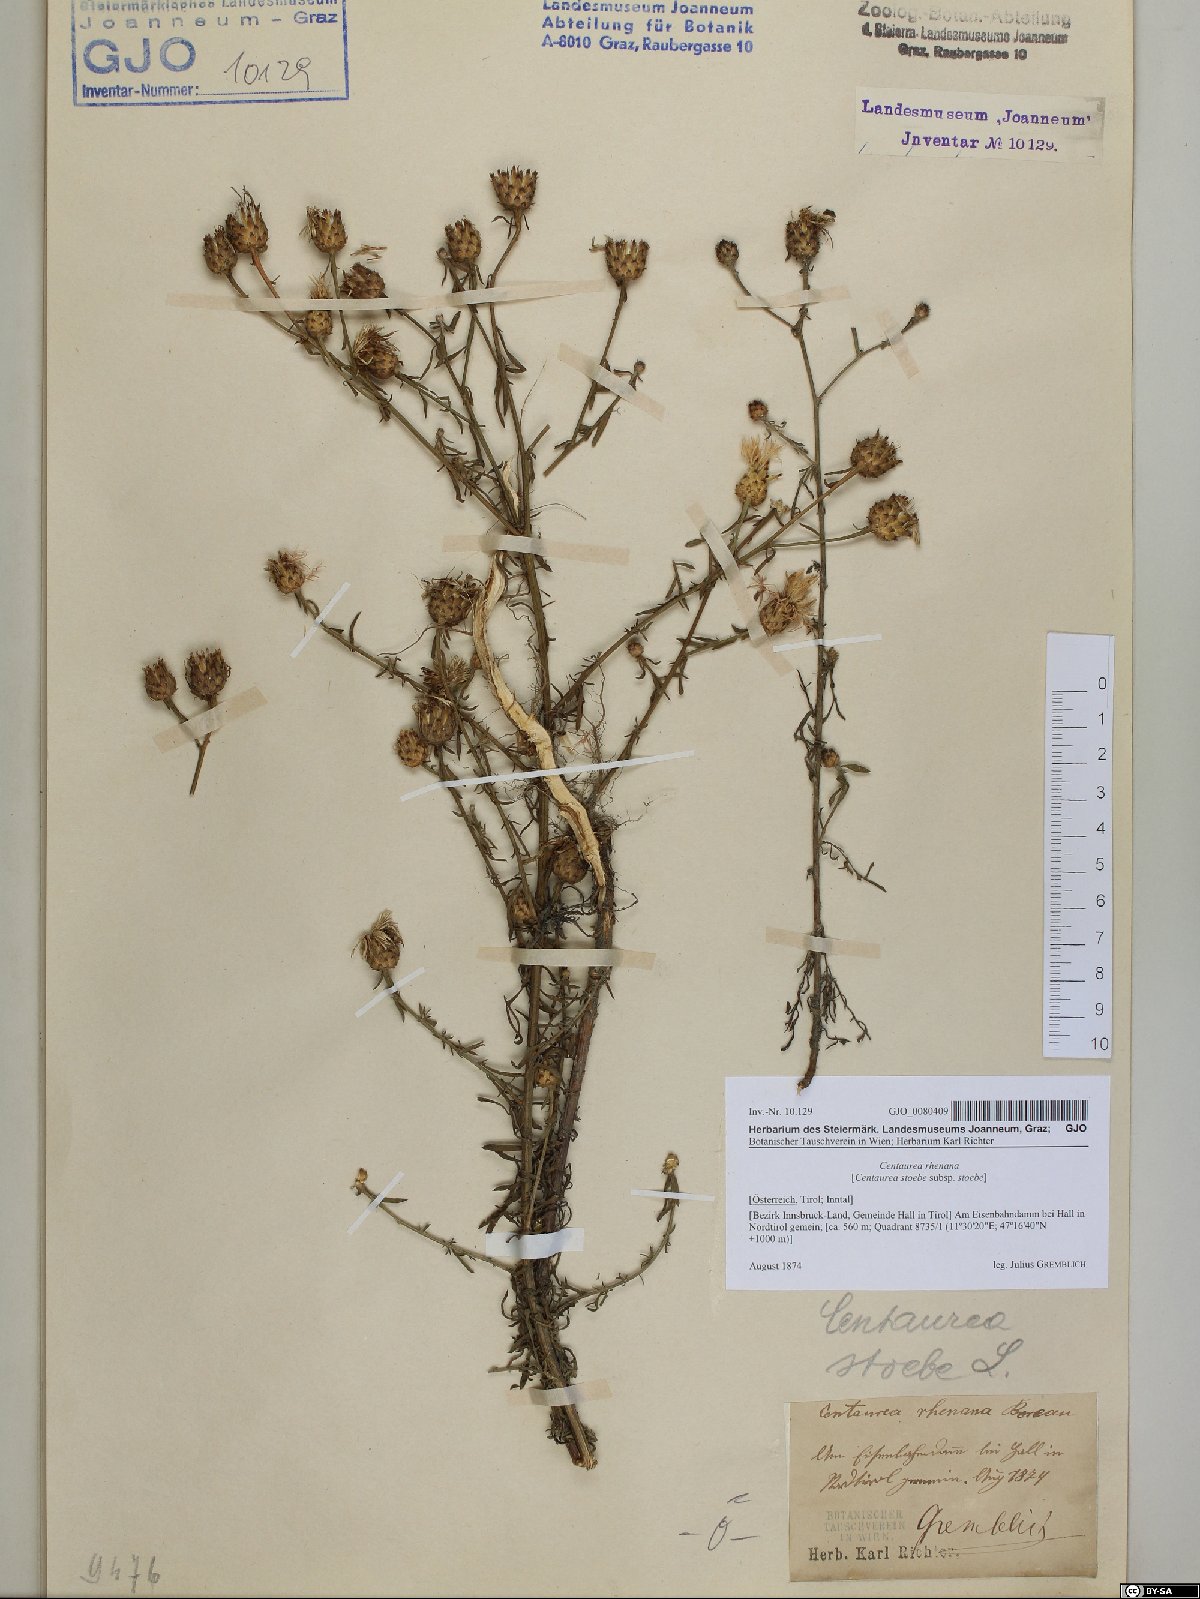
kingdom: Plantae
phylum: Tracheophyta
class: Magnoliopsida
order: Asterales
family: Asteraceae
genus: Centaurea
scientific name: Centaurea stoebe
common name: Spotted knapweed
